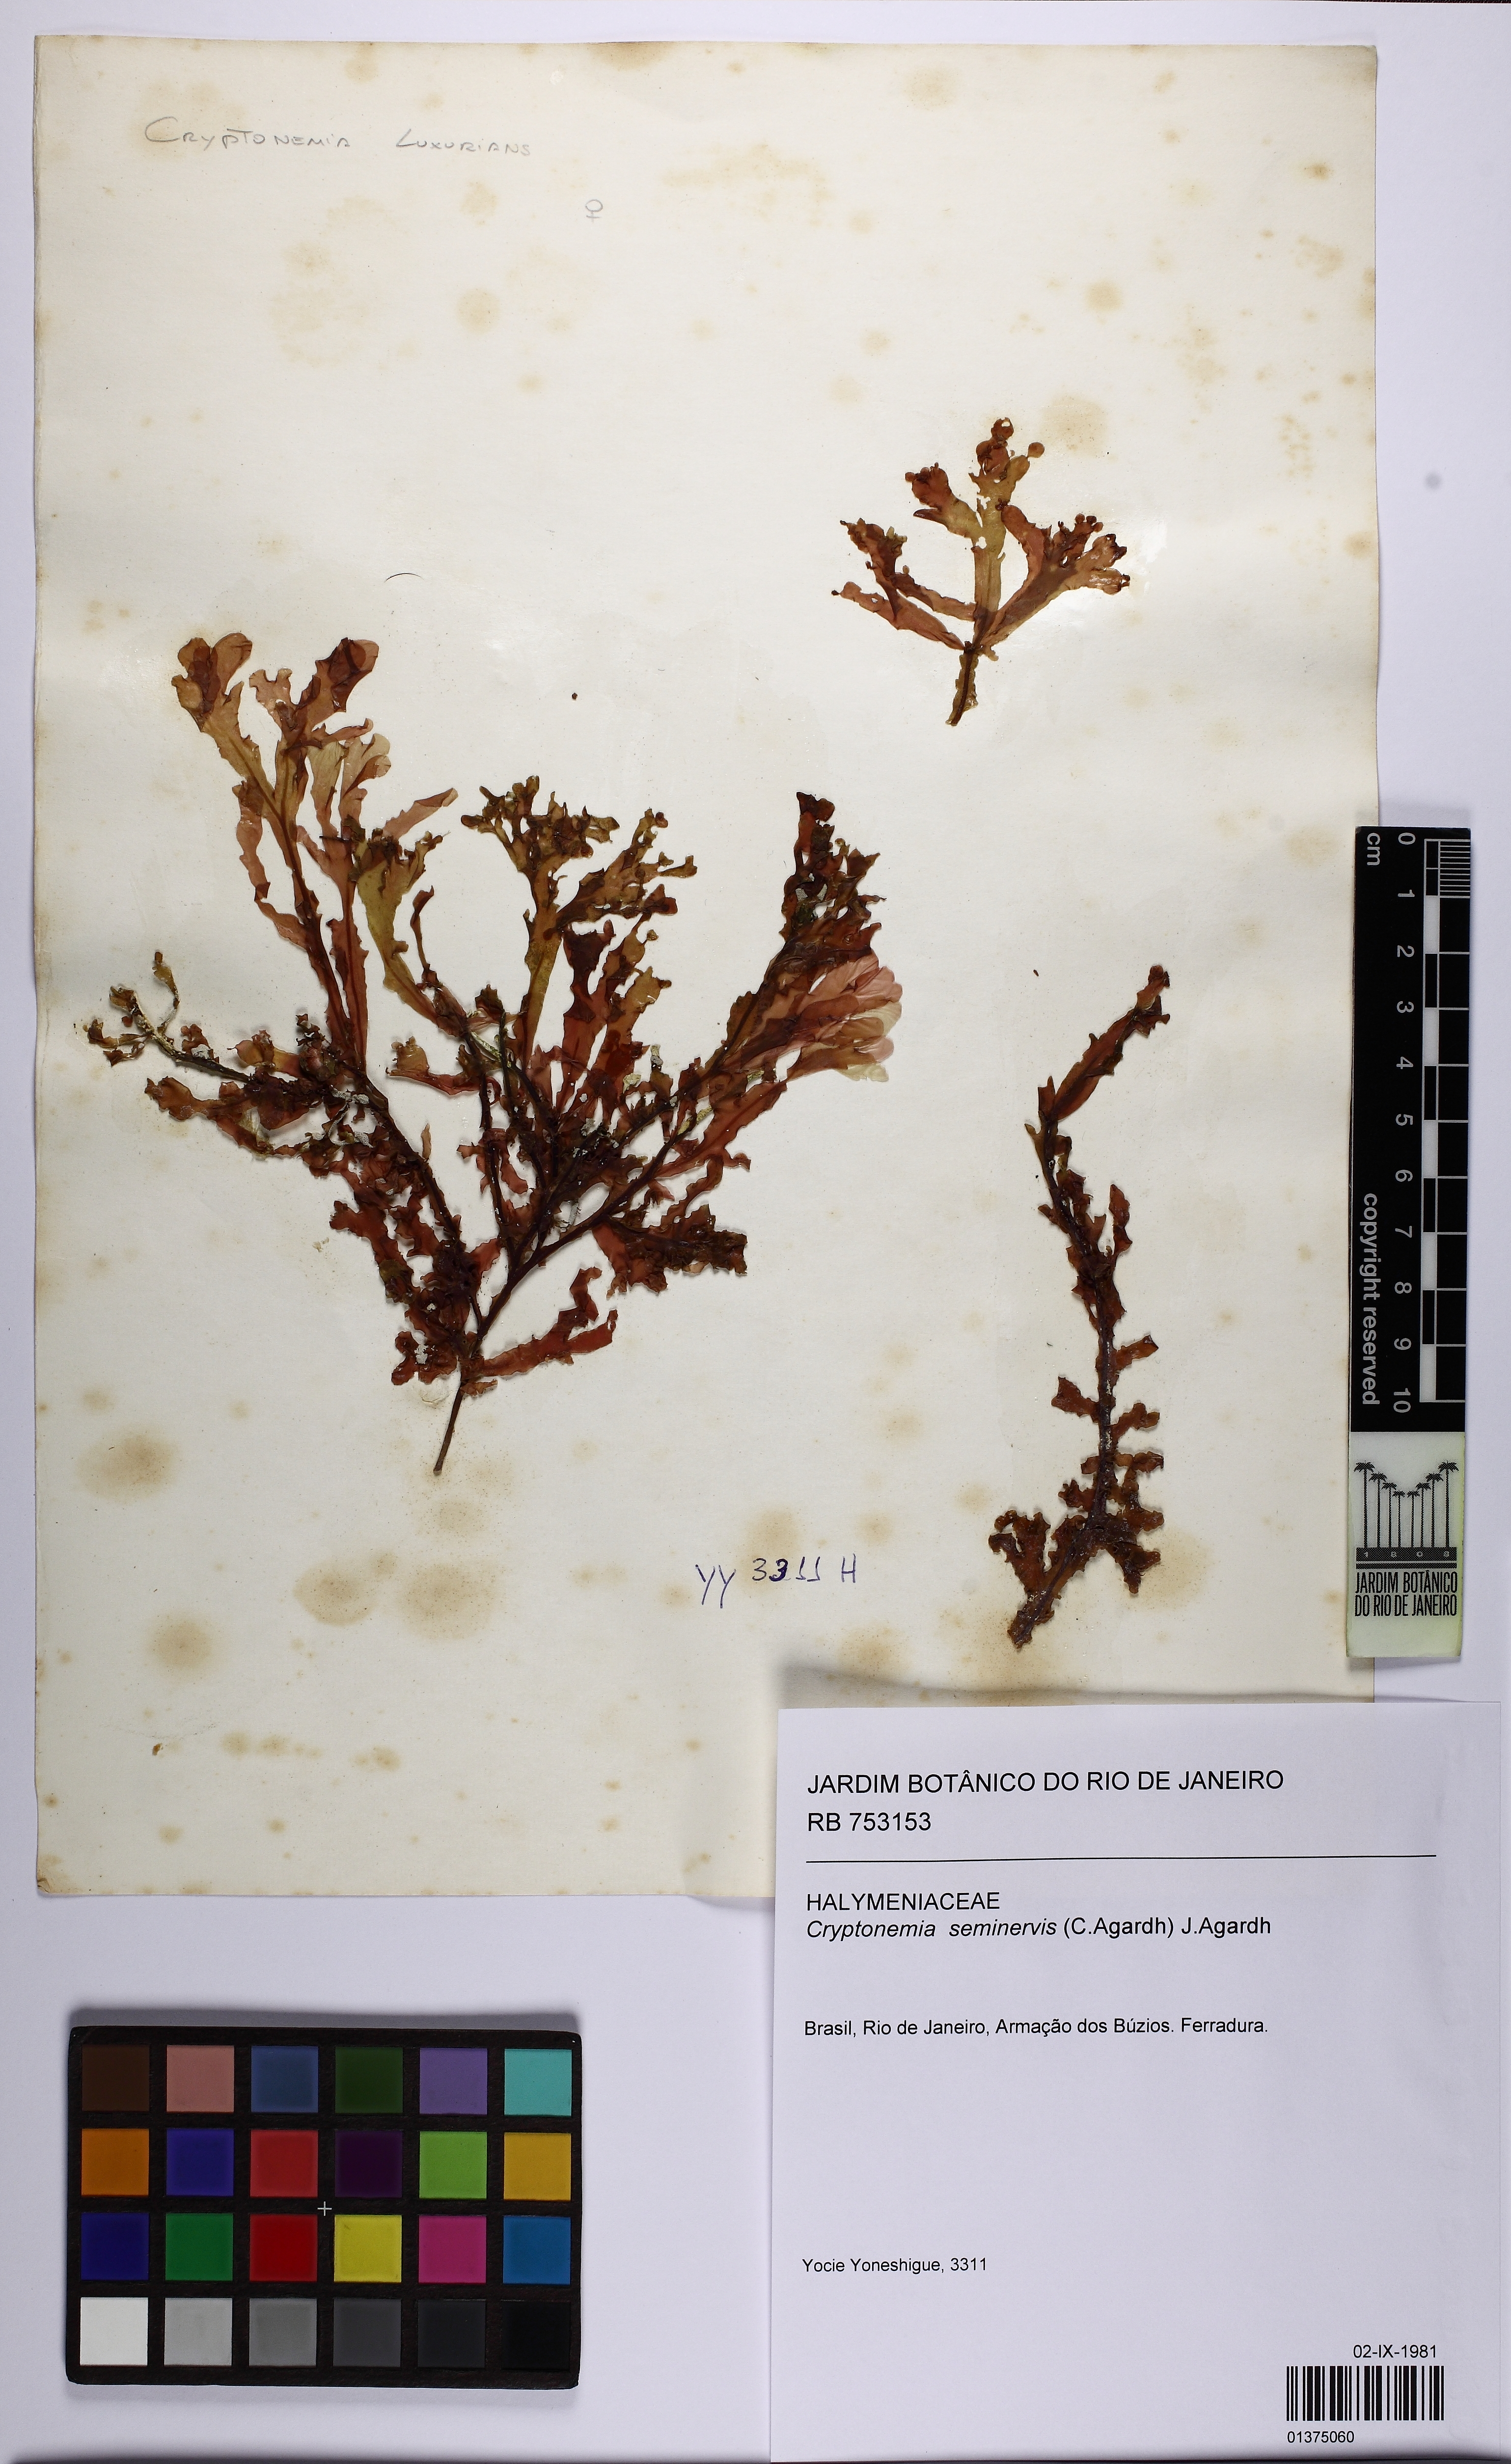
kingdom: Plantae
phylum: Rhodophyta
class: Florideophyceae
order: Halymeniales
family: Halymeniaceae
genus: Cryptonemia
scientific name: Cryptonemia seminervis
